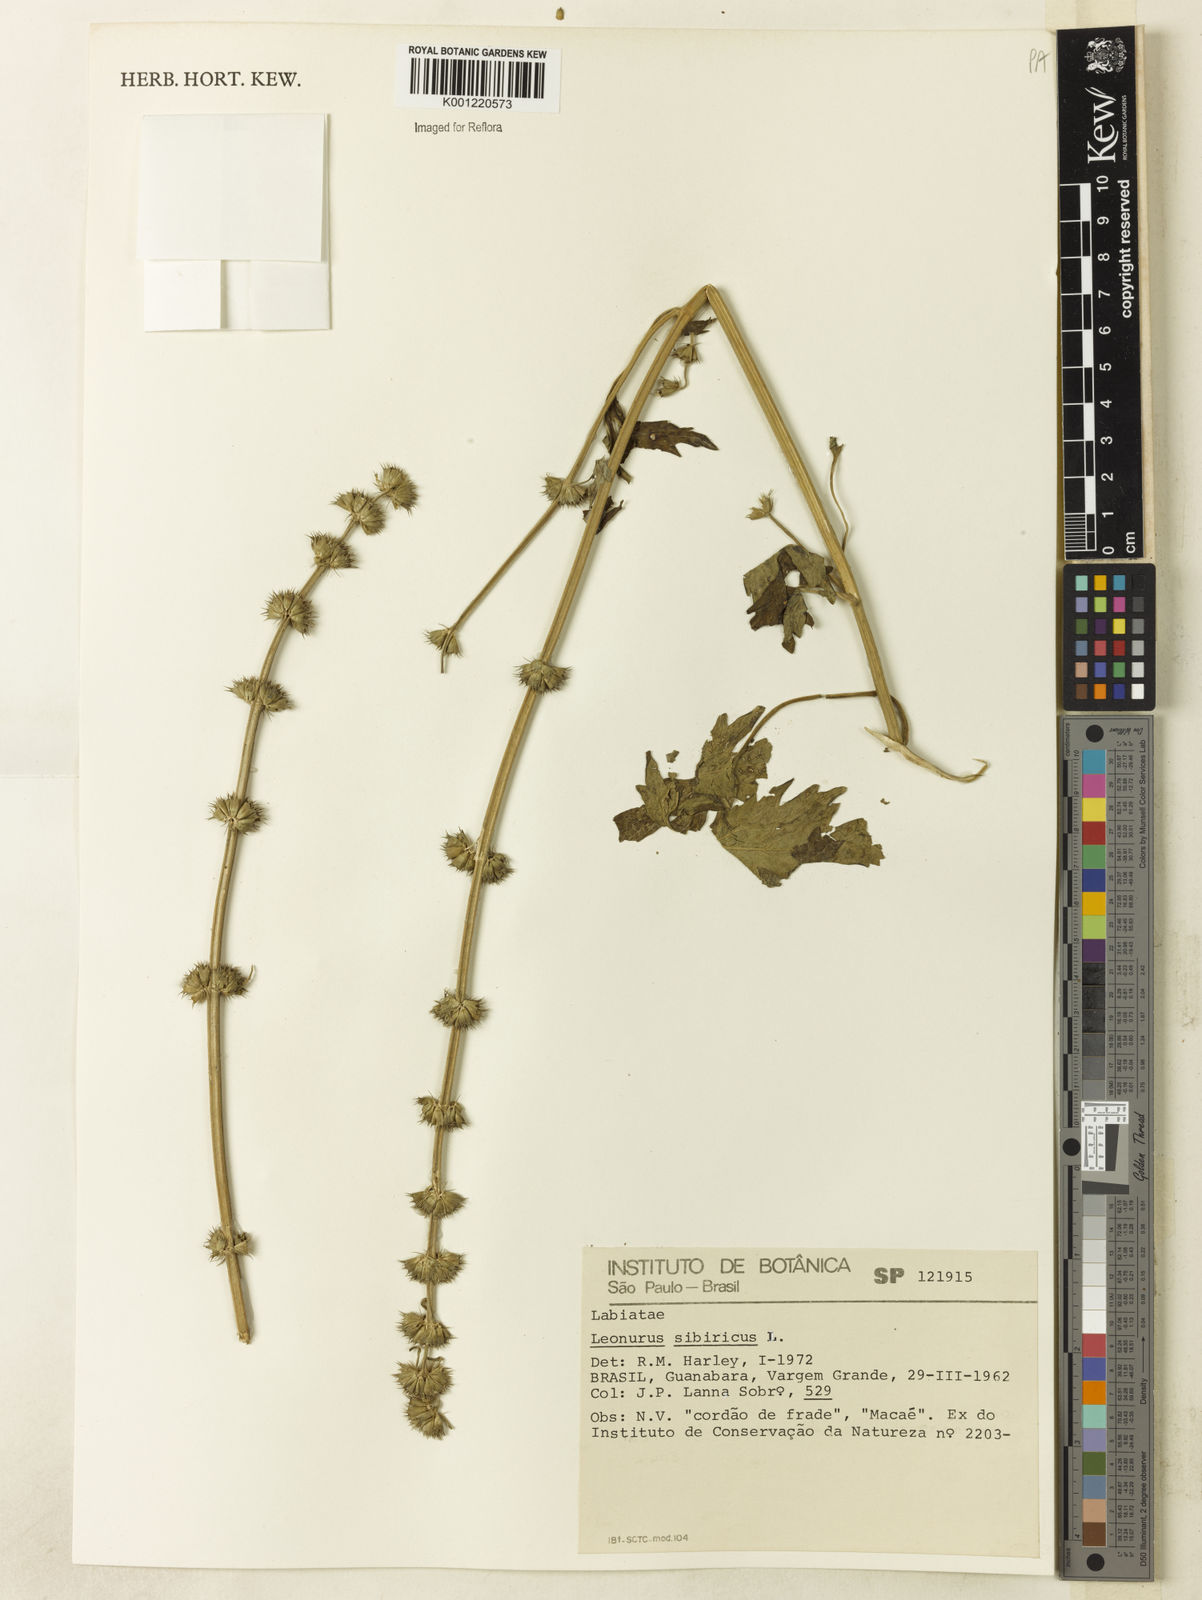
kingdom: Plantae
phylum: Tracheophyta
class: Magnoliopsida
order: Lamiales
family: Lamiaceae
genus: Leonurus
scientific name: Leonurus japonicus
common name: Honeyweed
